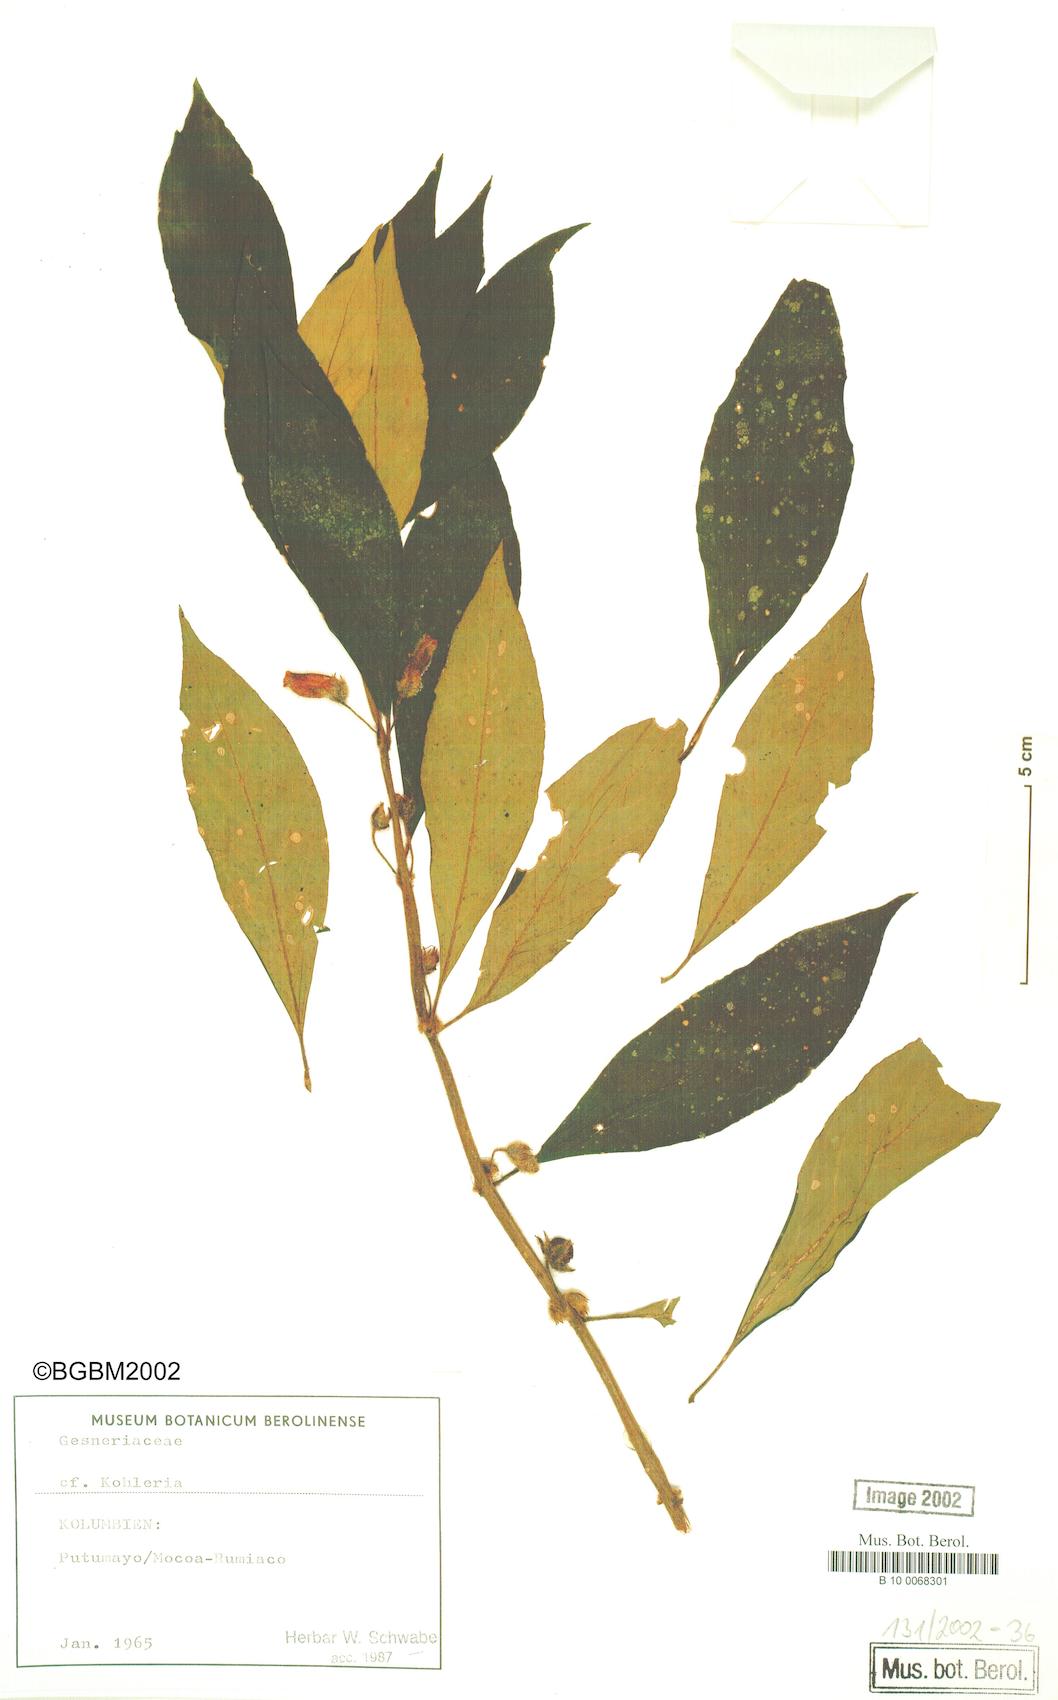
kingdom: Plantae
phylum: Tracheophyta
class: Magnoliopsida
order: Lamiales
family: Gesneriaceae
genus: Kohleria
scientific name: Kohleria
